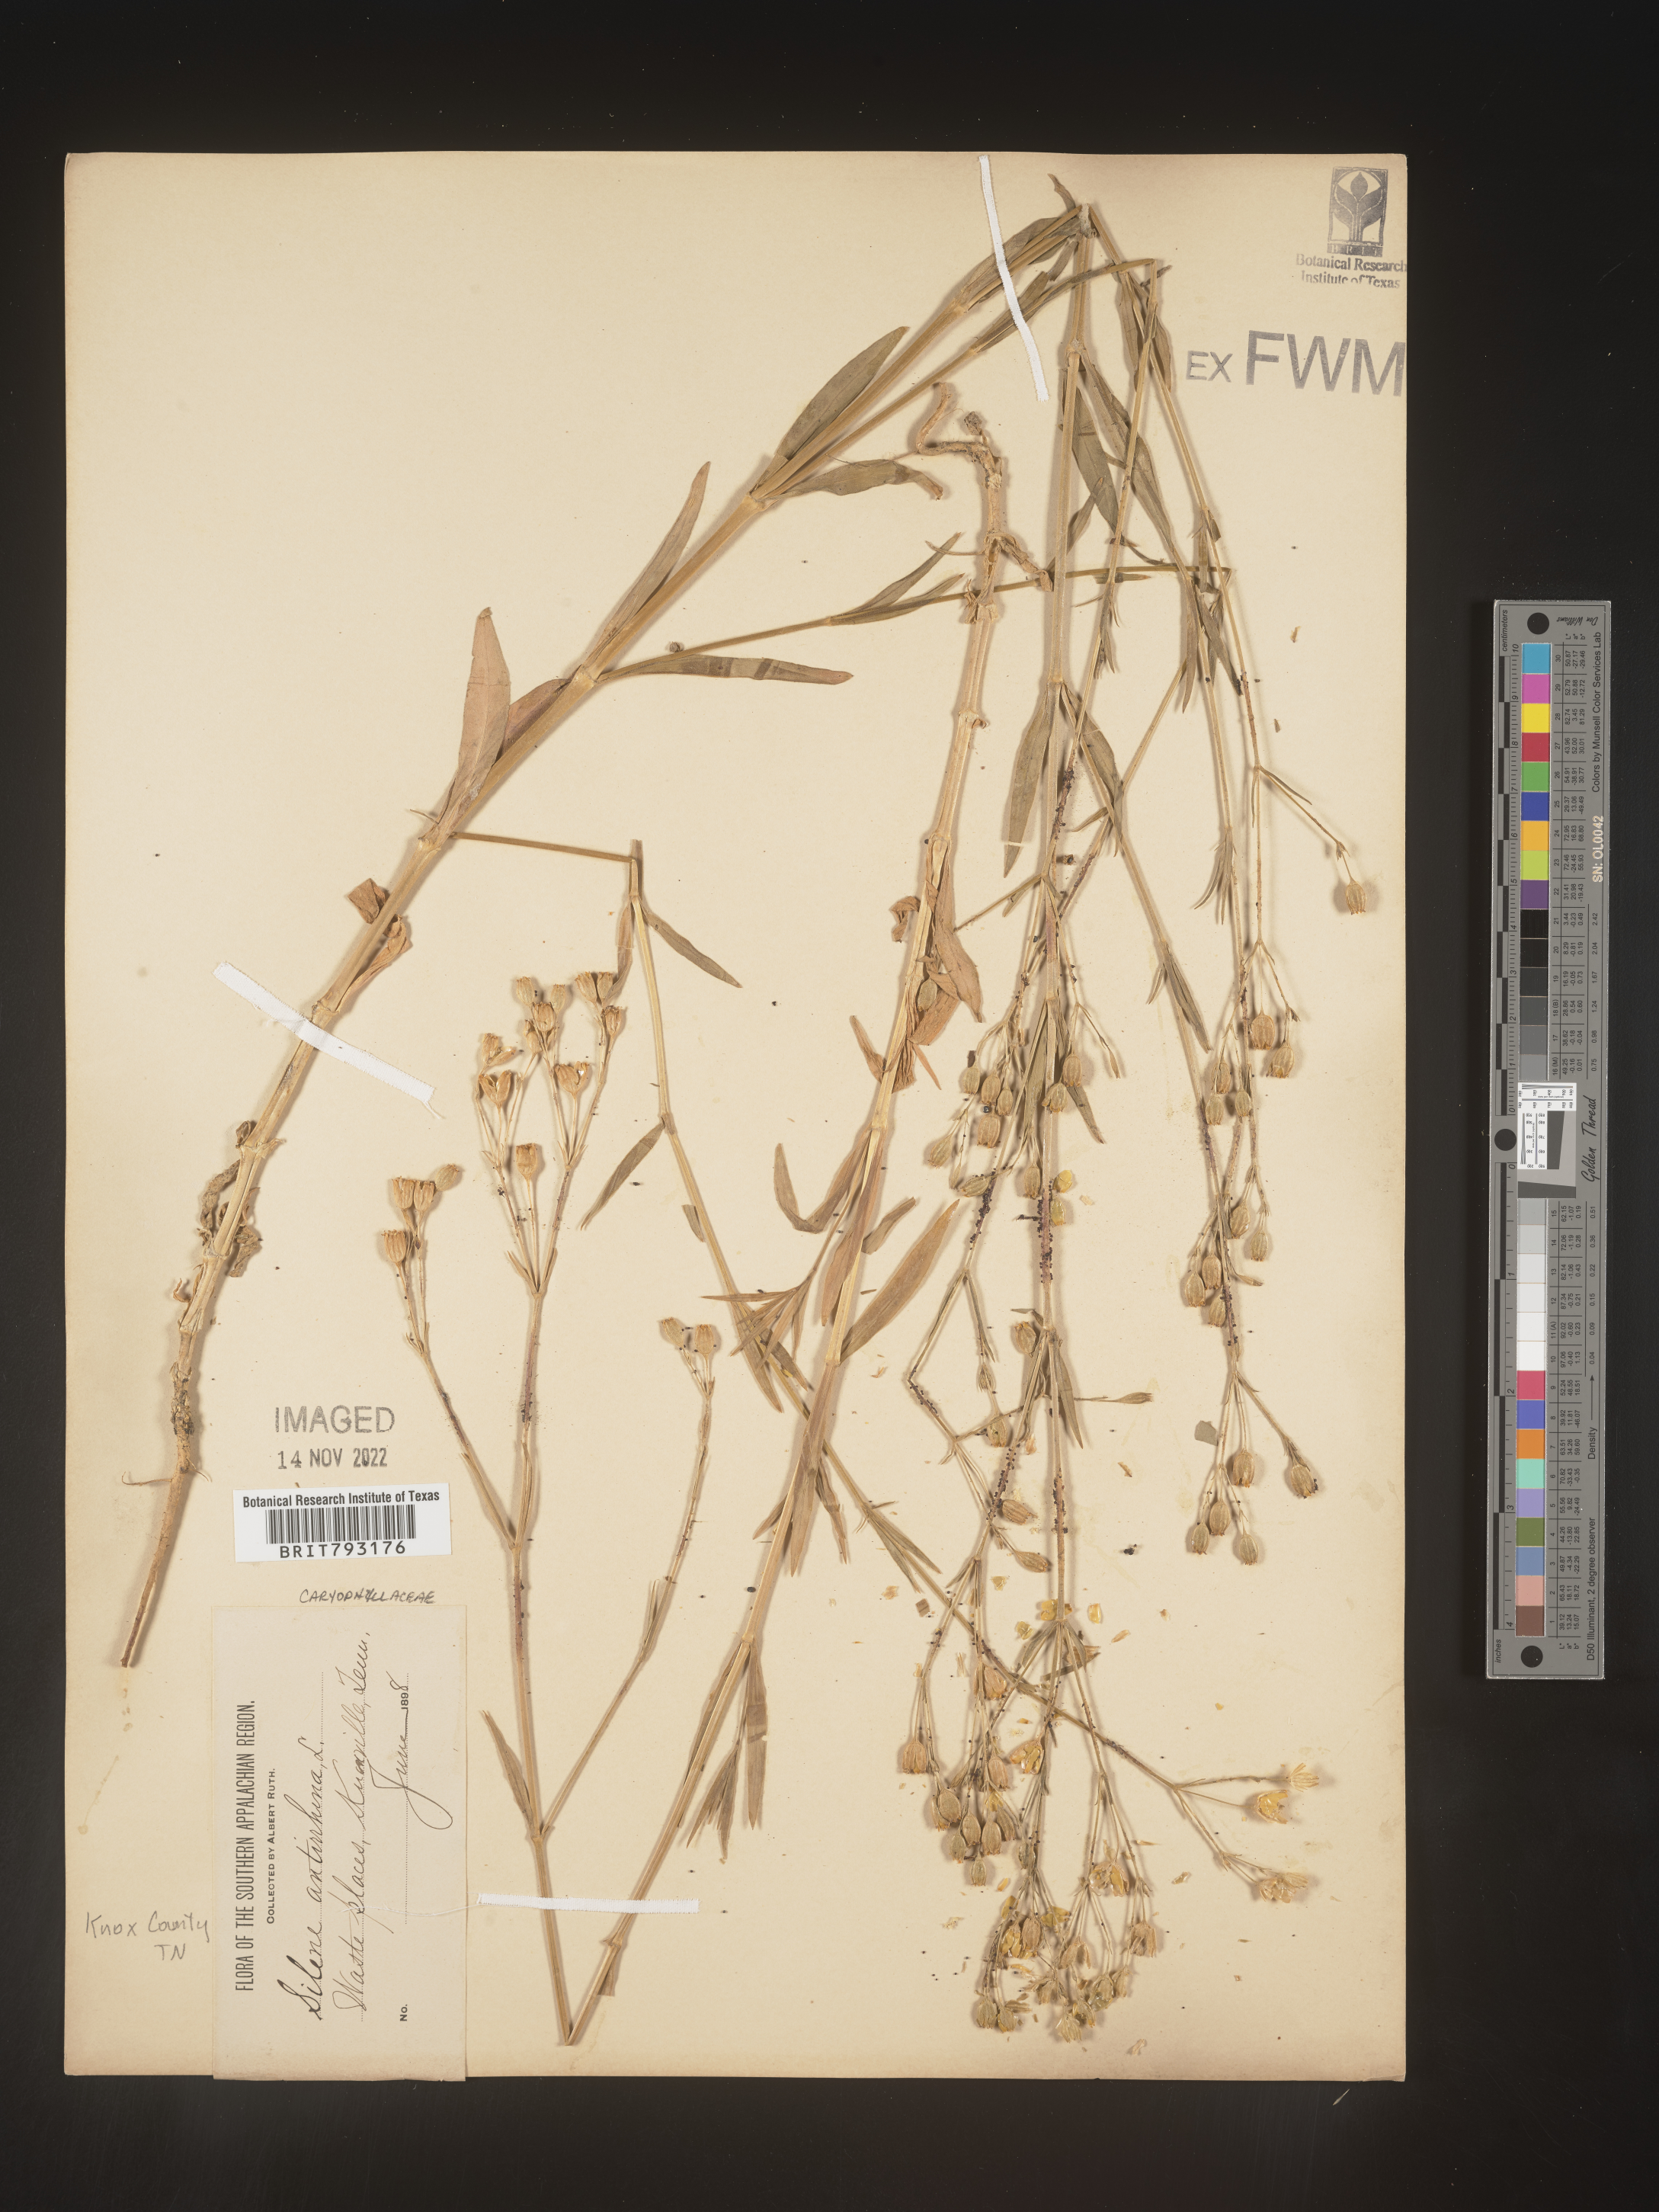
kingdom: Plantae
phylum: Tracheophyta
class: Magnoliopsida
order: Caryophyllales
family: Caryophyllaceae
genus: Silene
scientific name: Silene antirrhina
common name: Sleepy catchfly
